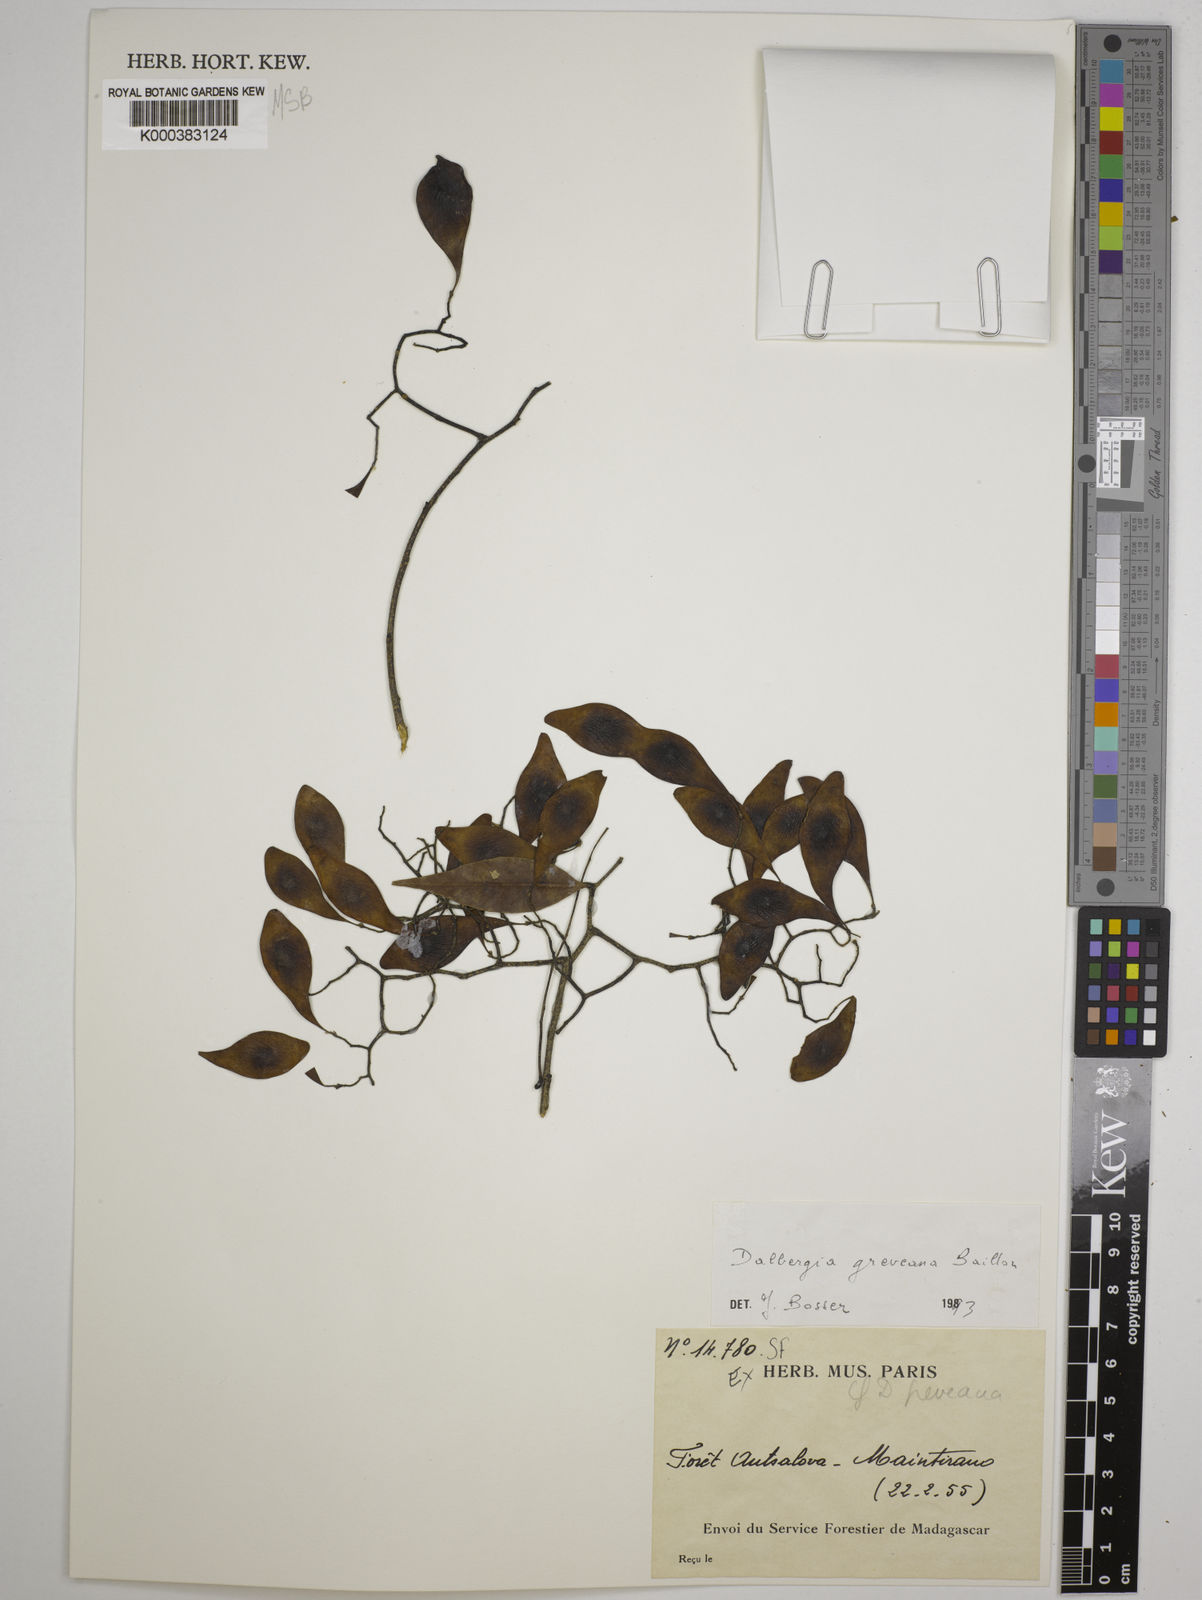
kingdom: Plantae
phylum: Tracheophyta
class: Magnoliopsida
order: Fabales
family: Fabaceae
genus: Dalbergia
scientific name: Dalbergia greveana
